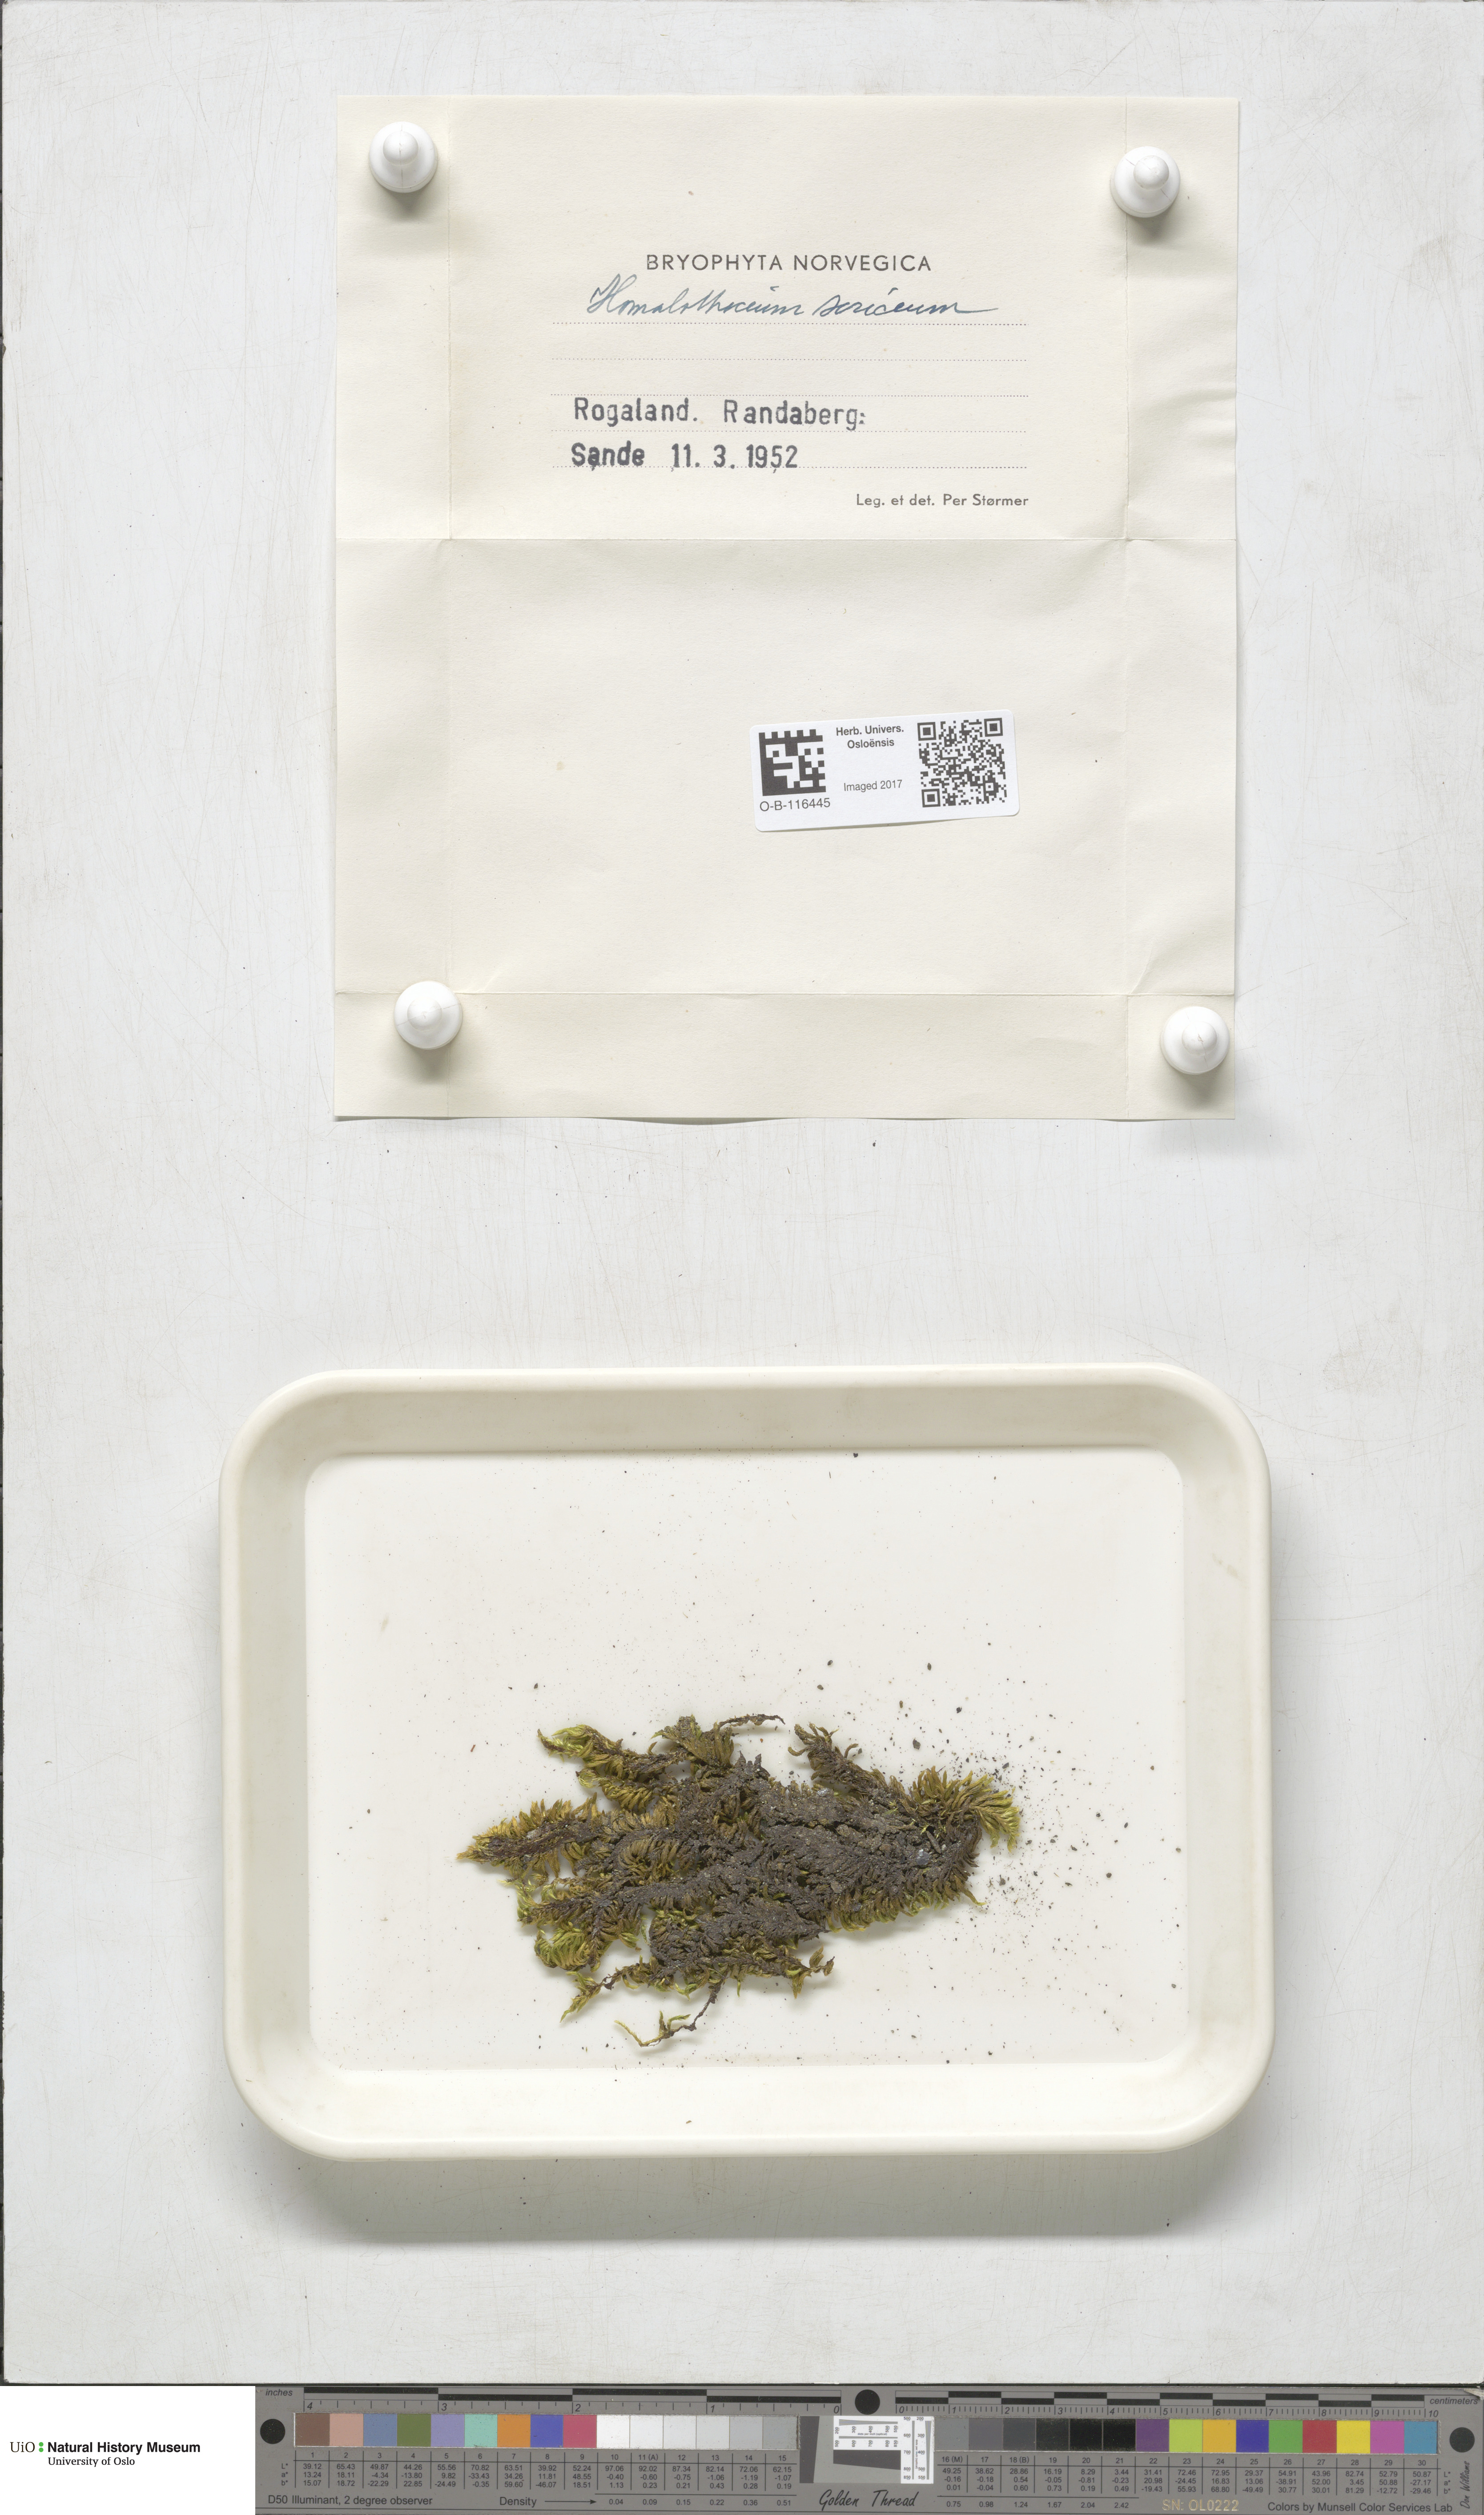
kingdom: Plantae
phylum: Bryophyta
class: Bryopsida
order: Hypnales
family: Brachytheciaceae
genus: Homalothecium
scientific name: Homalothecium sericeum
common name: Silky wall feather-moss
